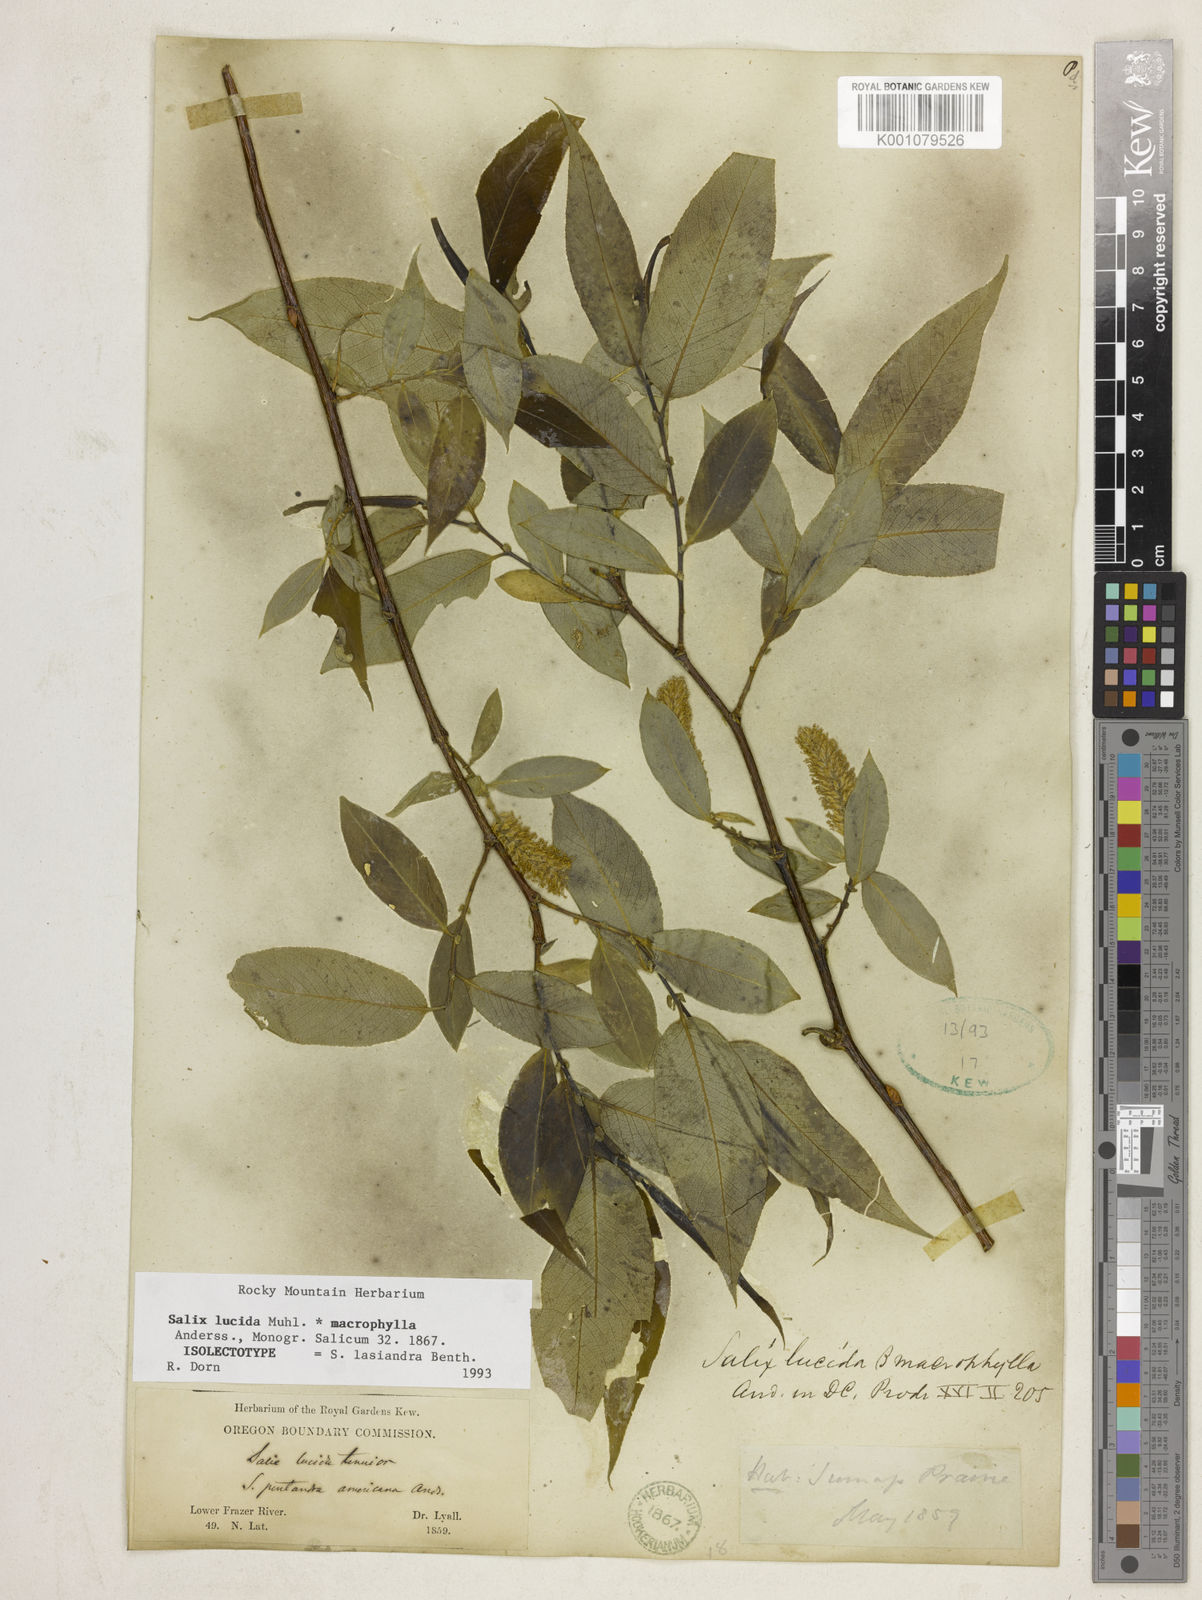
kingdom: Plantae
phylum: Tracheophyta
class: Magnoliopsida
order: Malpighiales
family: Salicaceae
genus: Salix
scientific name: Salix lucida
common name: Shining willow
